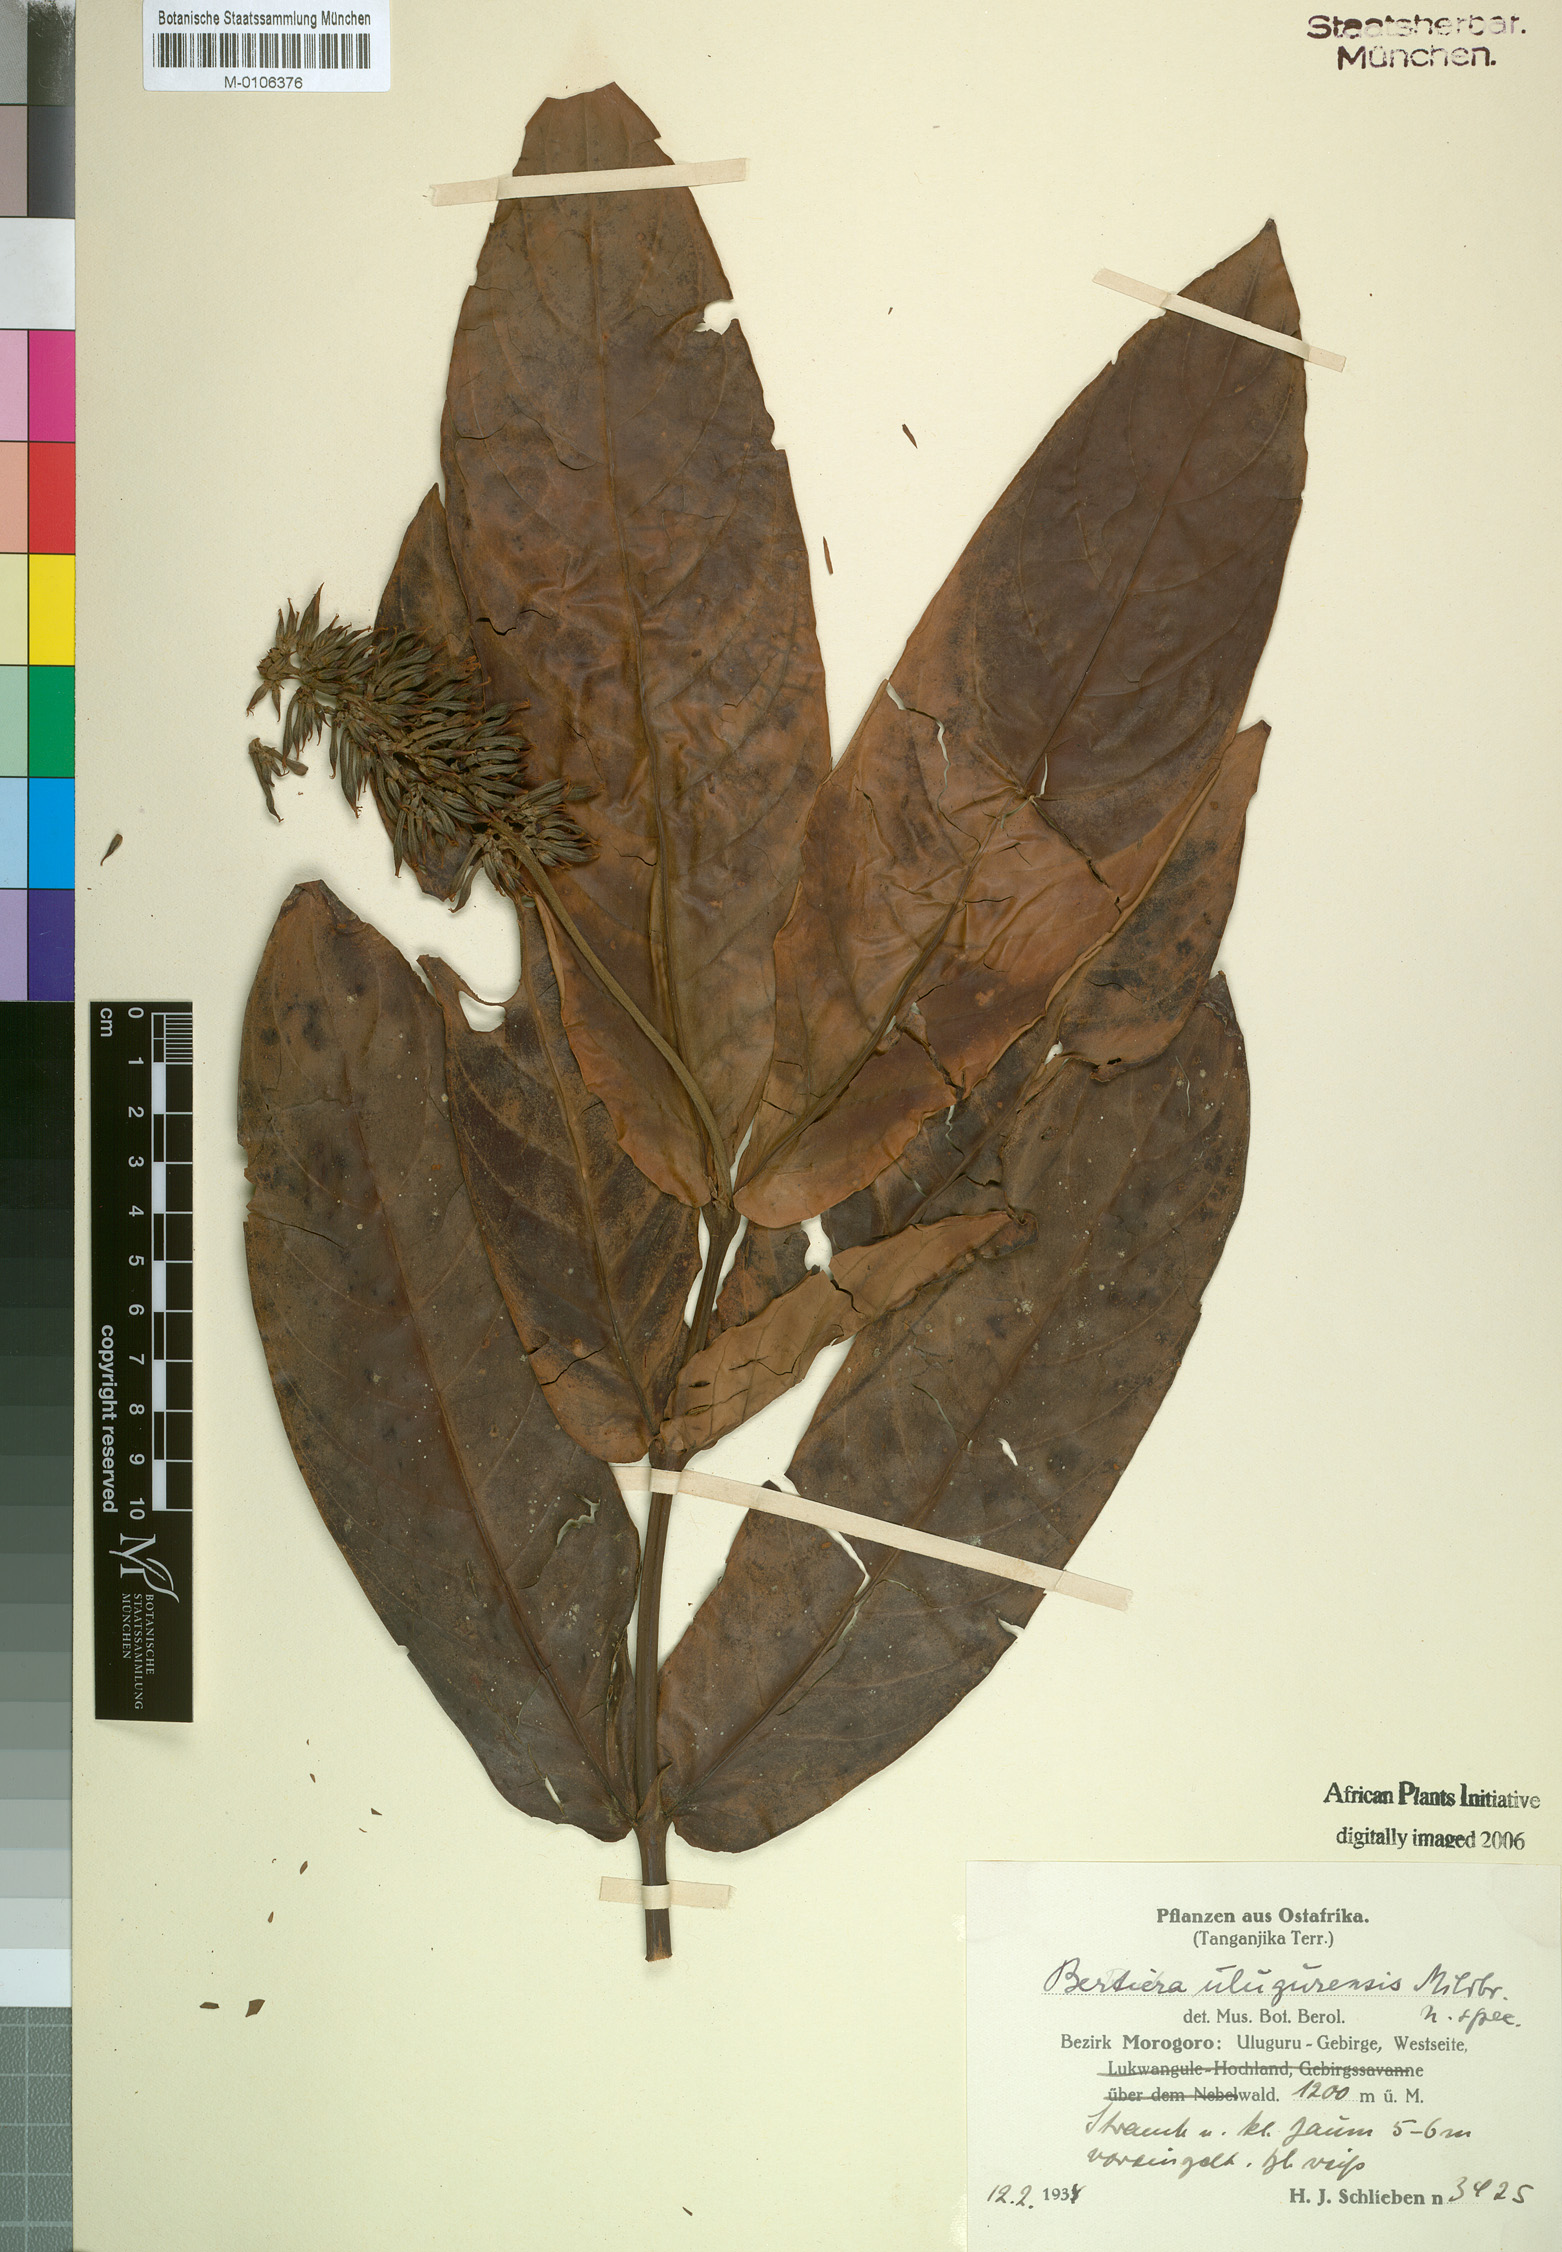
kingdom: Plantae
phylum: Tracheophyta
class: Magnoliopsida
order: Gentianales
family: Rubiaceae
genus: Bertiera
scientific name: Bertiera
